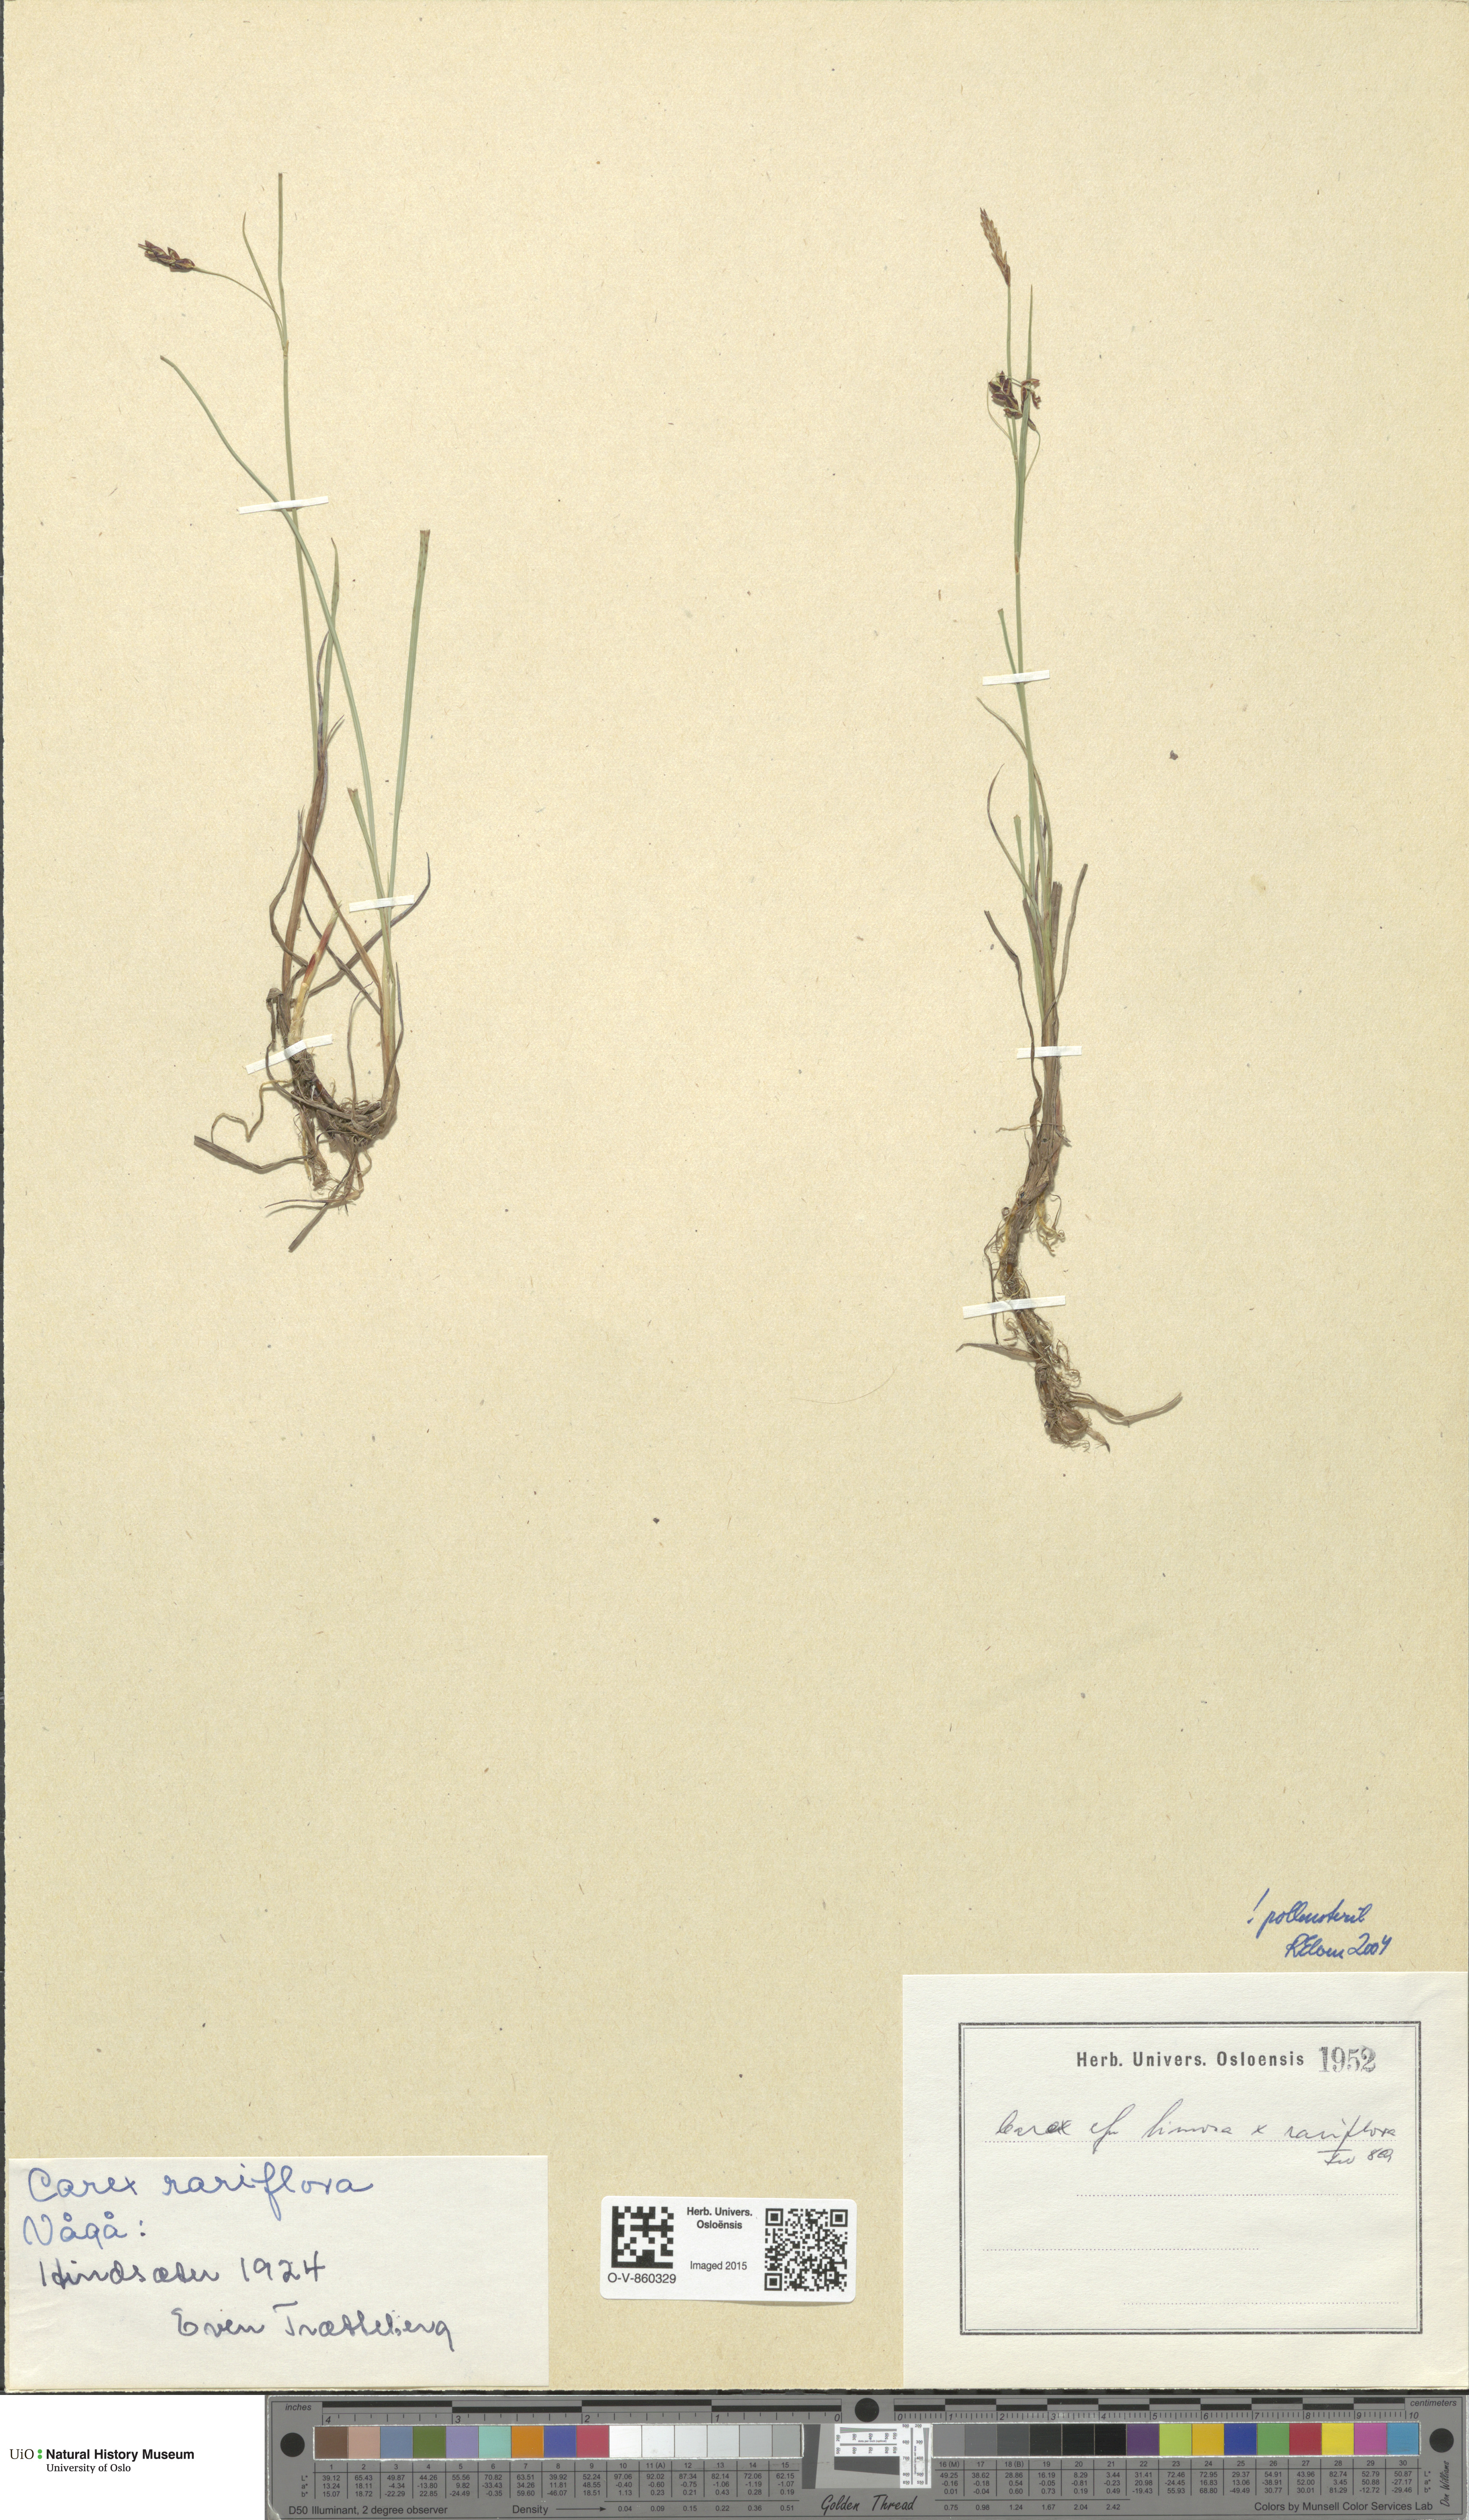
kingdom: Plantae
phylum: Tracheophyta
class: Liliopsida
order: Poales
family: Cyperaceae
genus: Carex
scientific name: Carex
